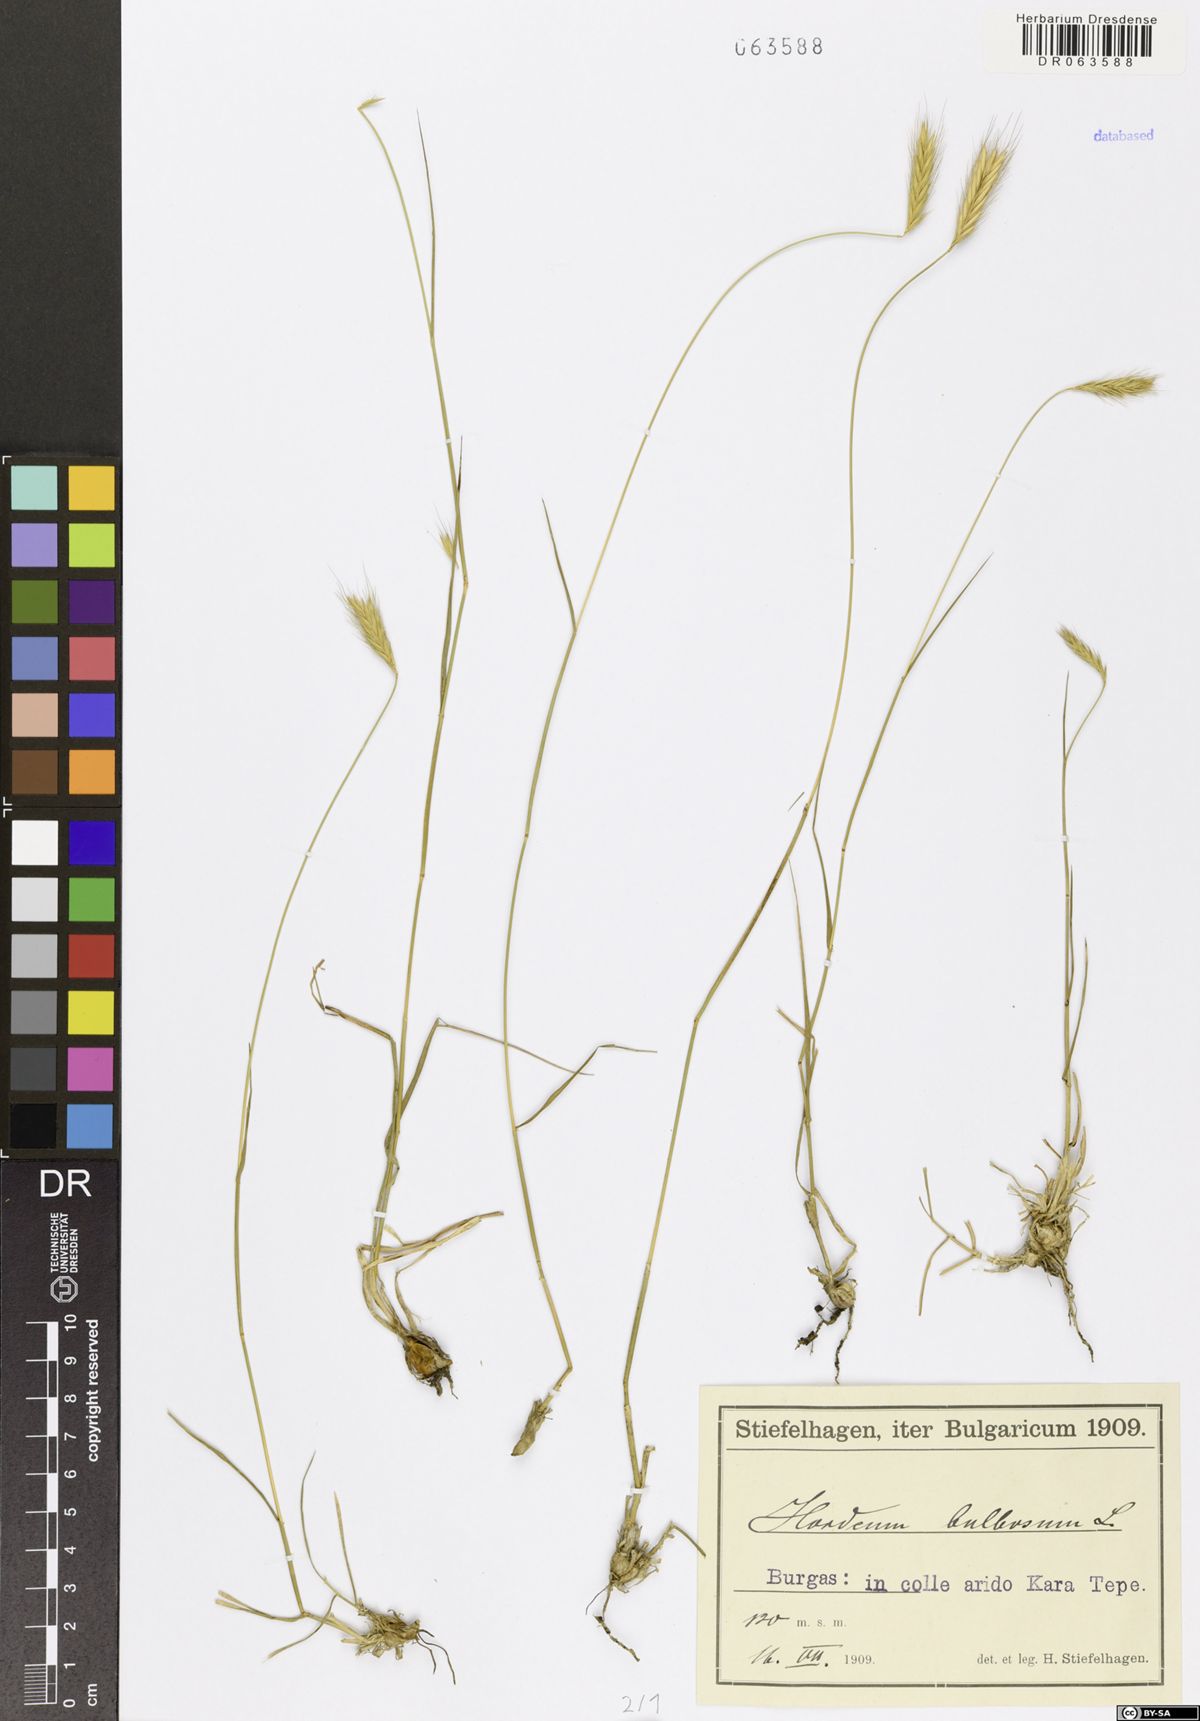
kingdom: Plantae
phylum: Tracheophyta
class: Liliopsida
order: Poales
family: Poaceae
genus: Hordeum
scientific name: Hordeum bulbosum
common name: Bulbous barley
